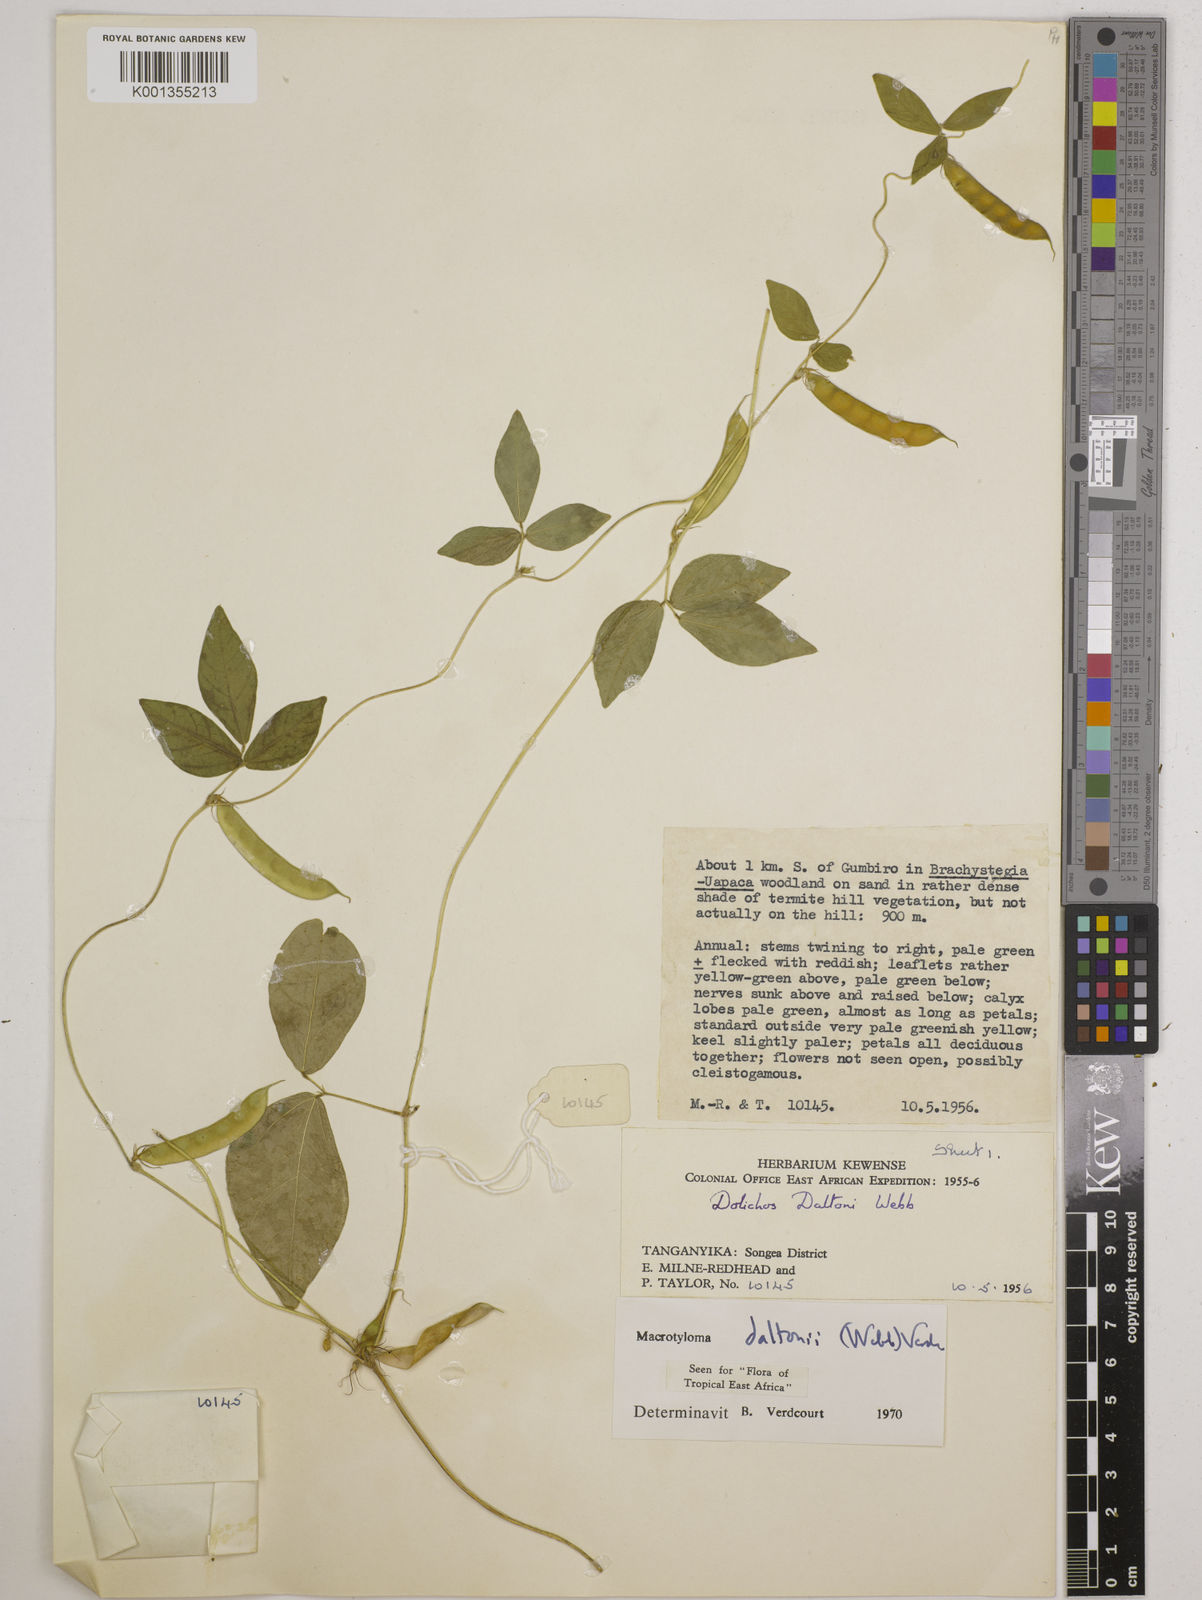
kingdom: Plantae
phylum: Tracheophyta
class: Magnoliopsida
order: Fabales
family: Fabaceae
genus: Macrotyloma
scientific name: Macrotyloma daltonii
